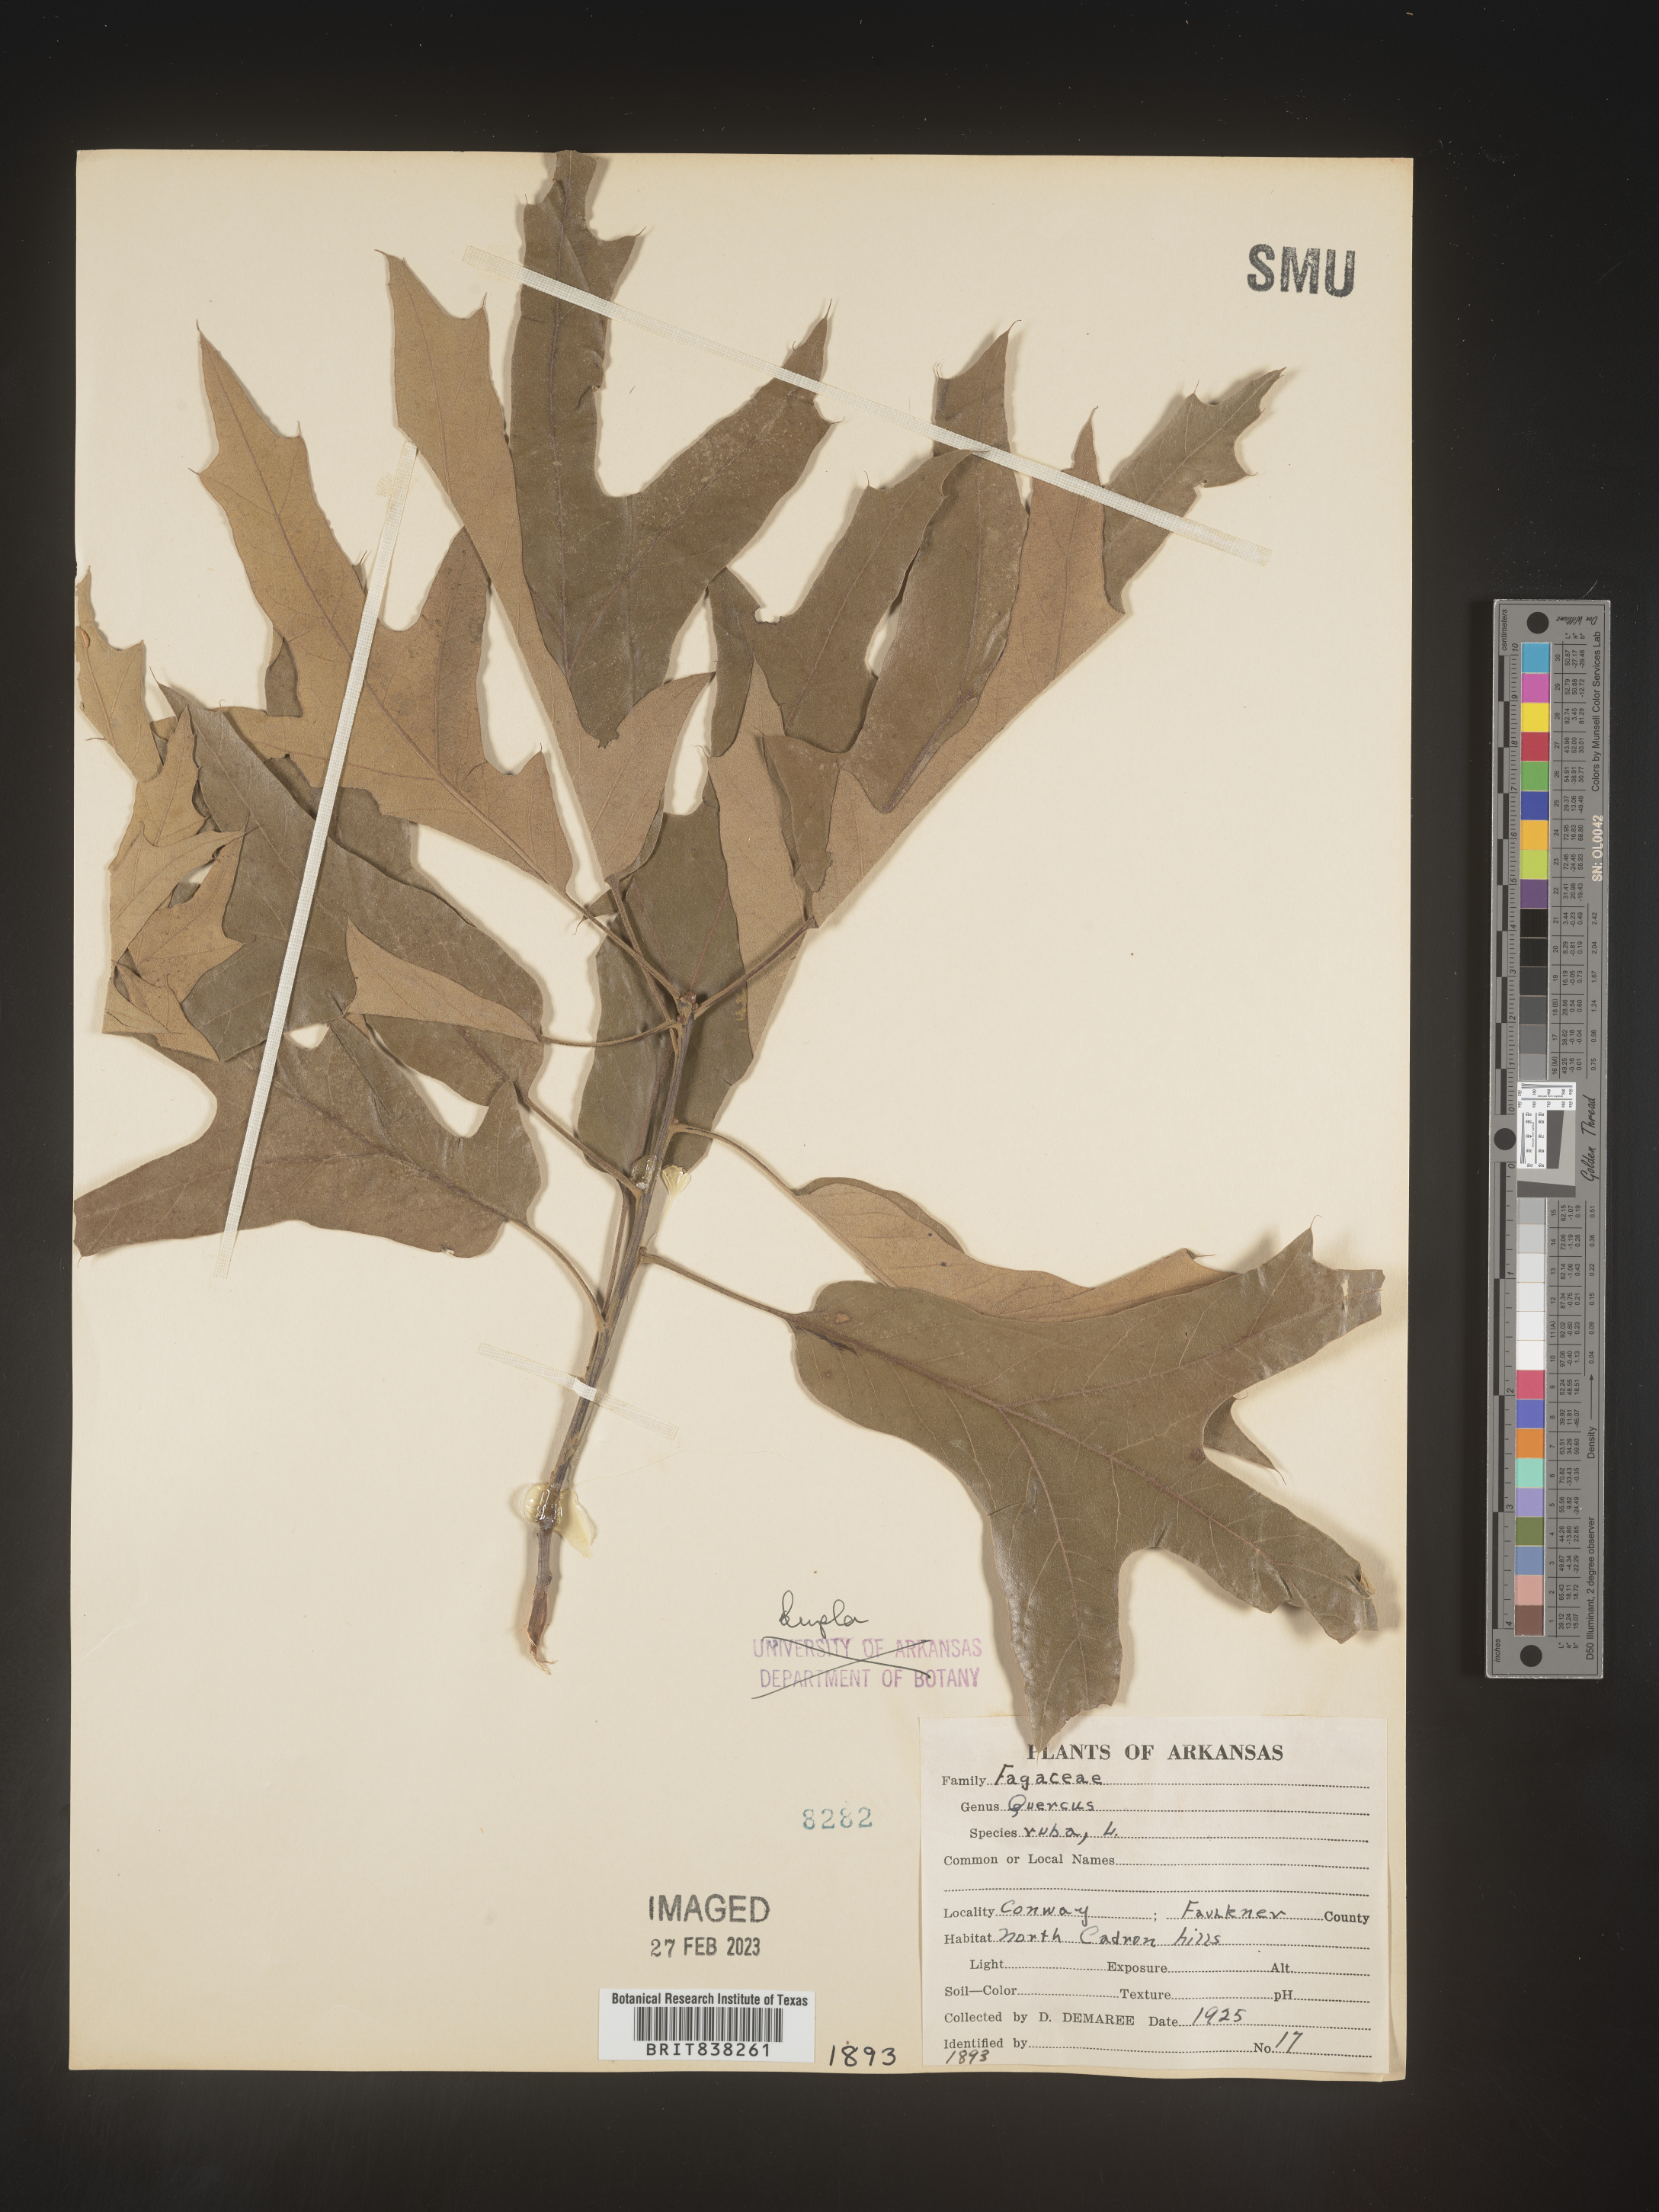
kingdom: Plantae
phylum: Tracheophyta
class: Magnoliopsida
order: Fagales
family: Fagaceae
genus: Quercus
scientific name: Quercus falcata
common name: Southern red oak
